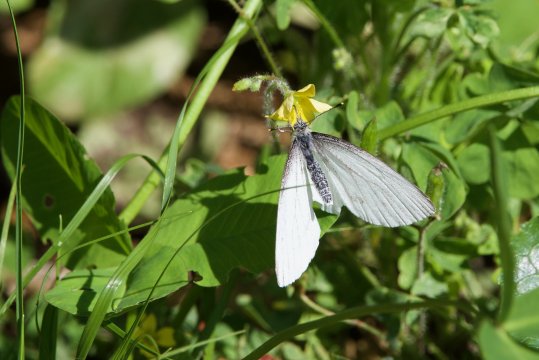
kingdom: Animalia
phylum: Arthropoda
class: Insecta
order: Lepidoptera
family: Pieridae
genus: Pieris
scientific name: Pieris oleracea
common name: Mustard White
